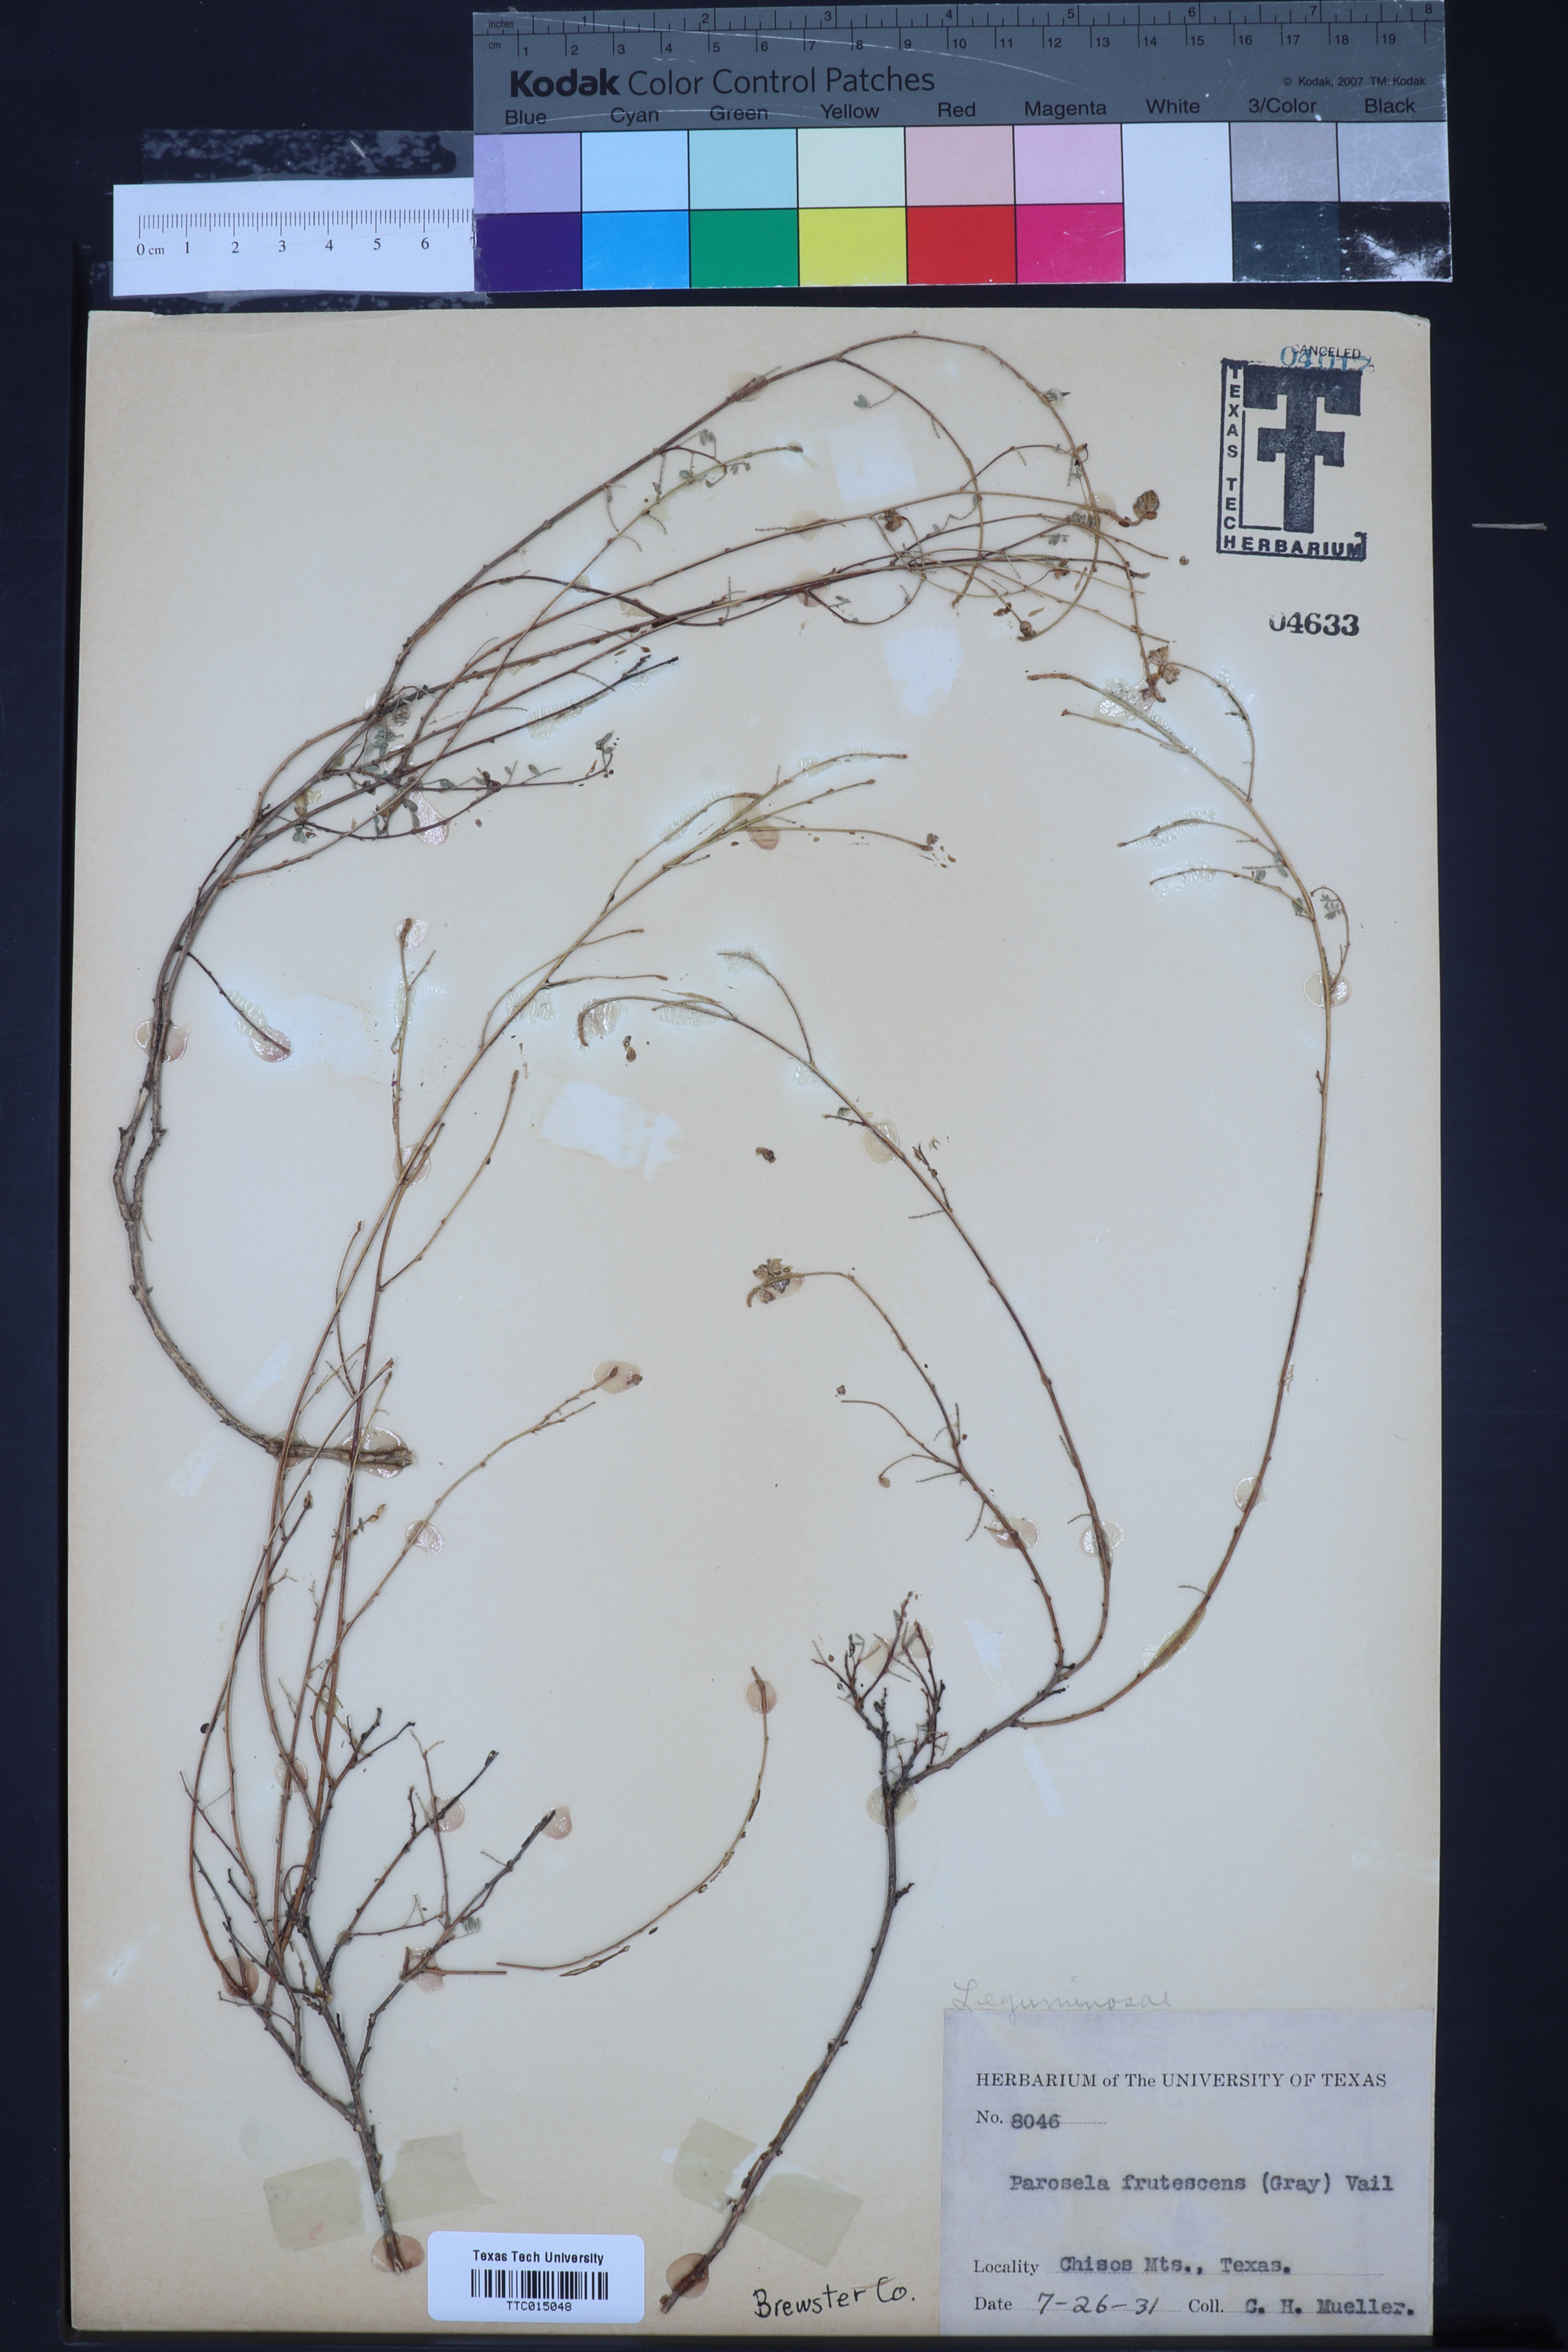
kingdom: Plantae
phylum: Tracheophyta
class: Magnoliopsida
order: Fabales
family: Fabaceae
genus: Dalea
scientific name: Dalea frutescens
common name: Black dalea
